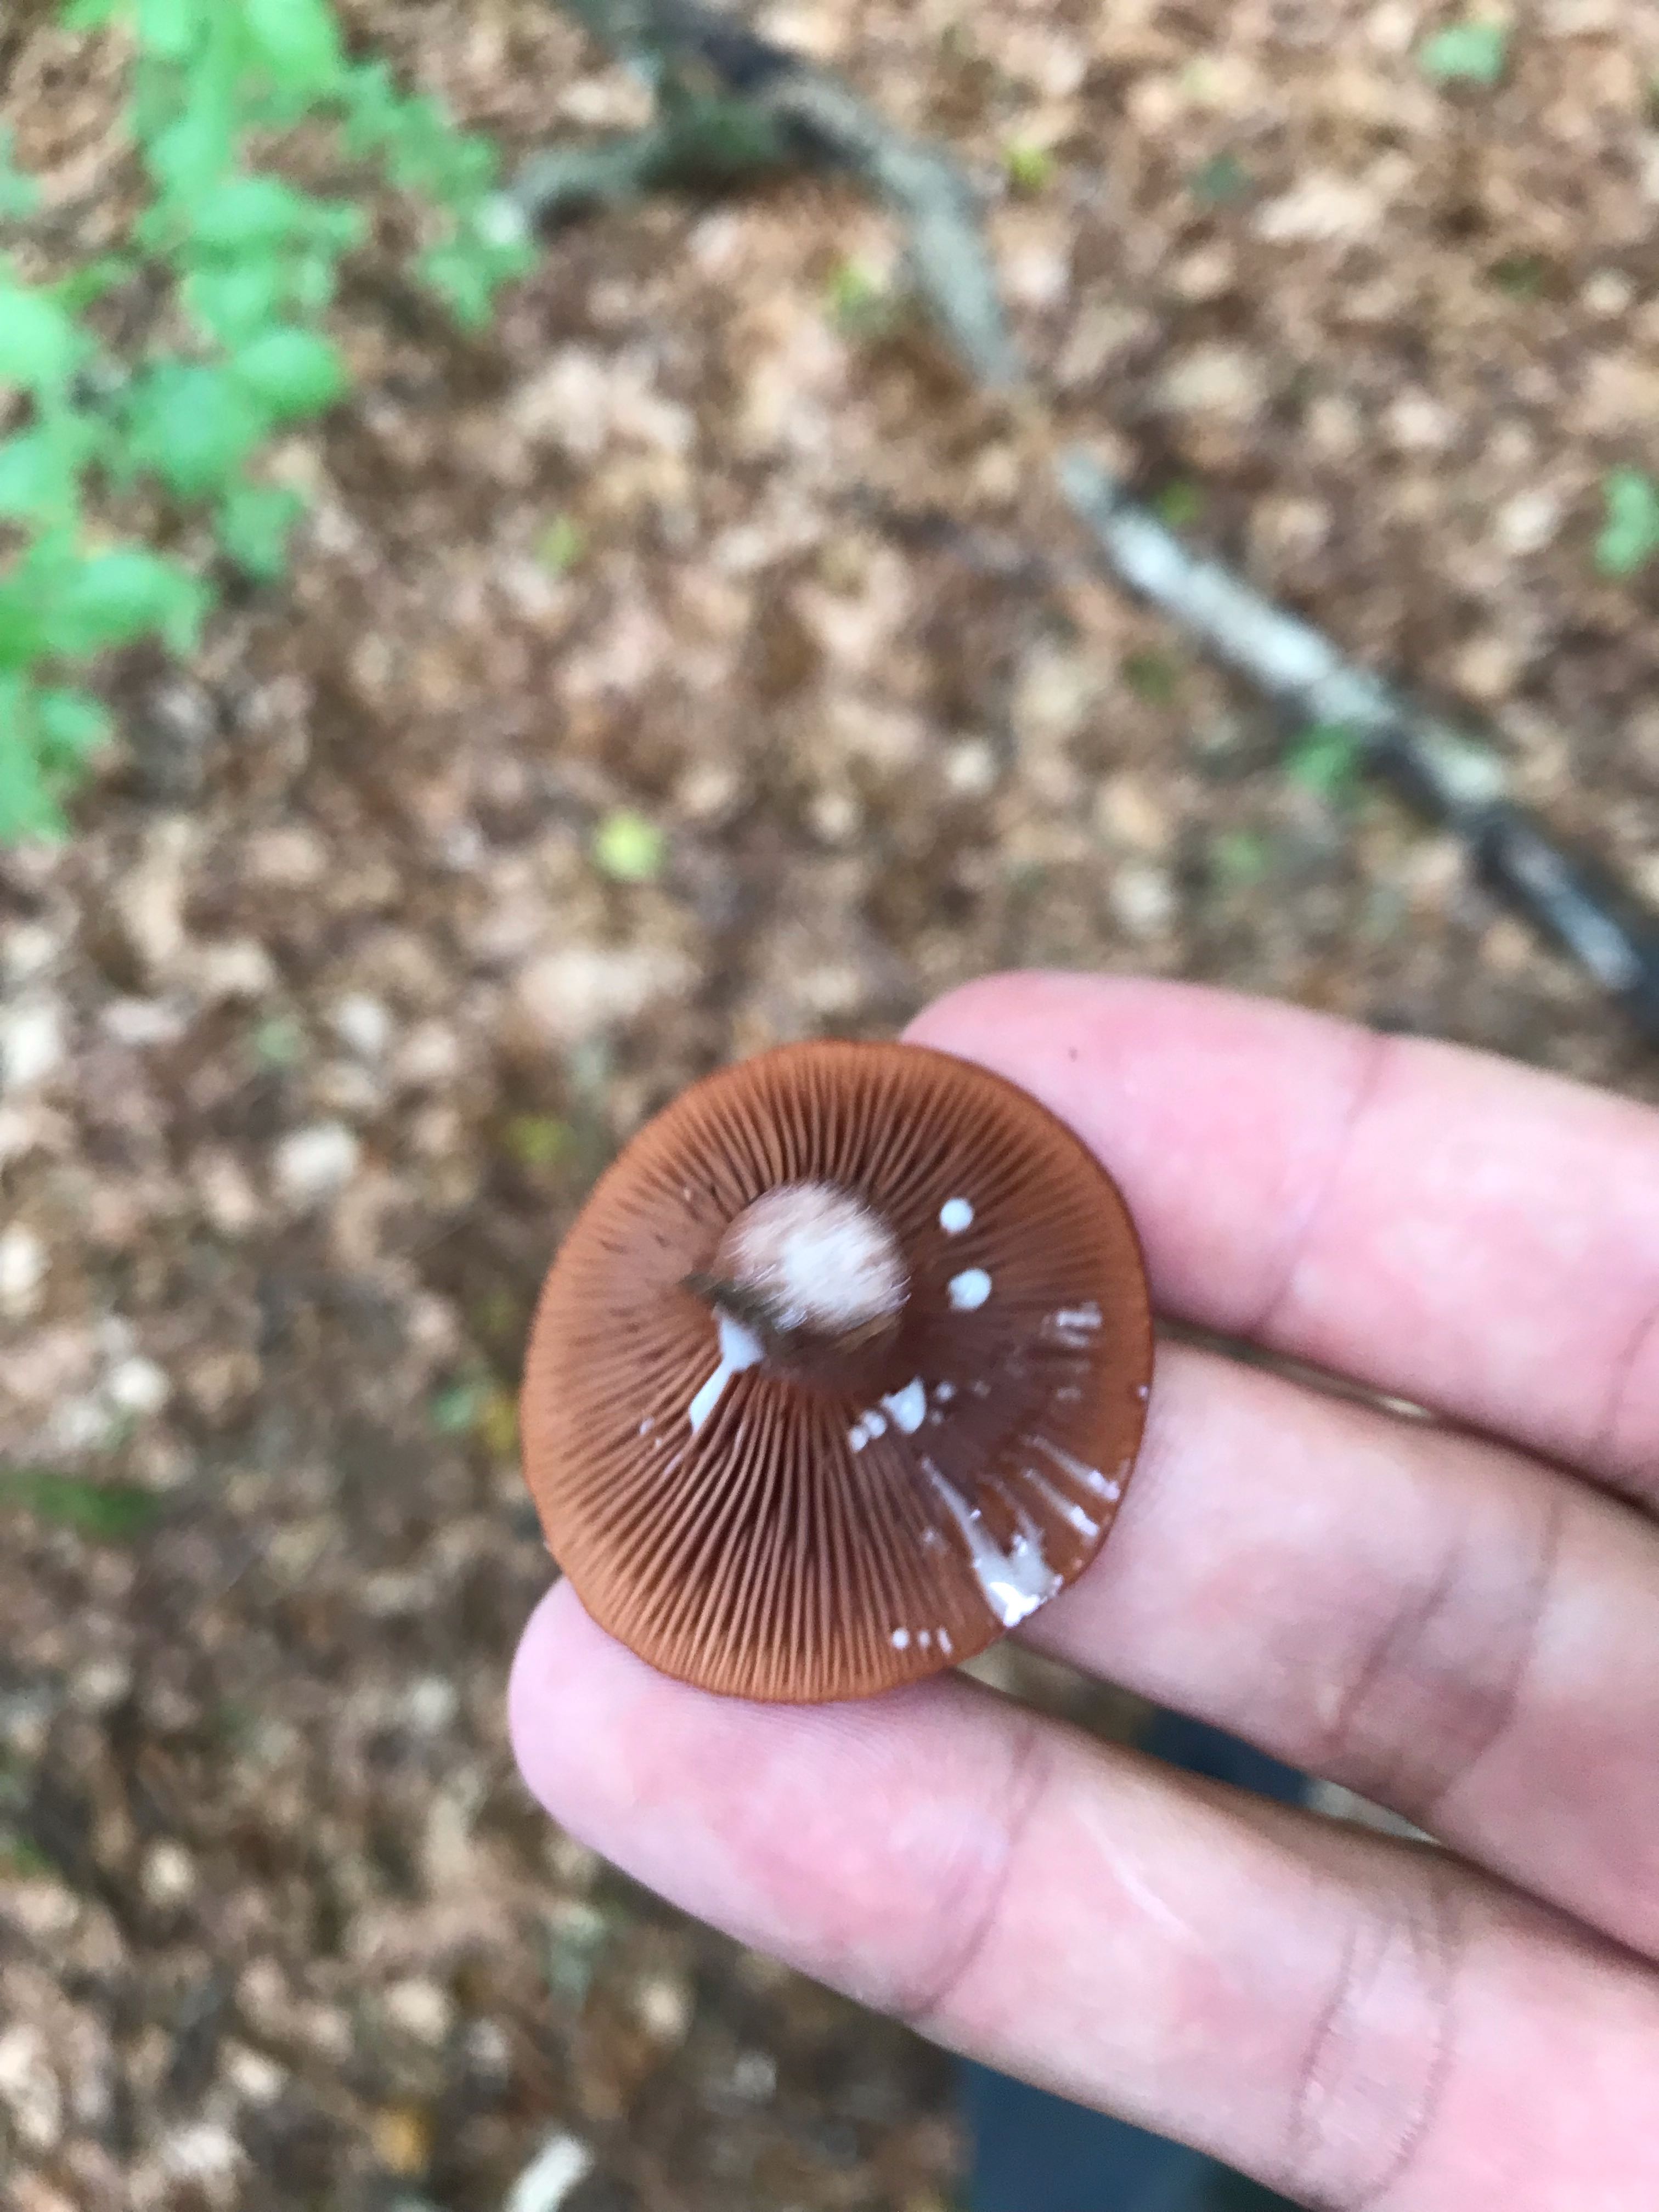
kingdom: Fungi
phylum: Basidiomycota
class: Agaricomycetes
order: Russulales
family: Russulaceae
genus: Lactarius
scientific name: Lactarius
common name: mælkehat
